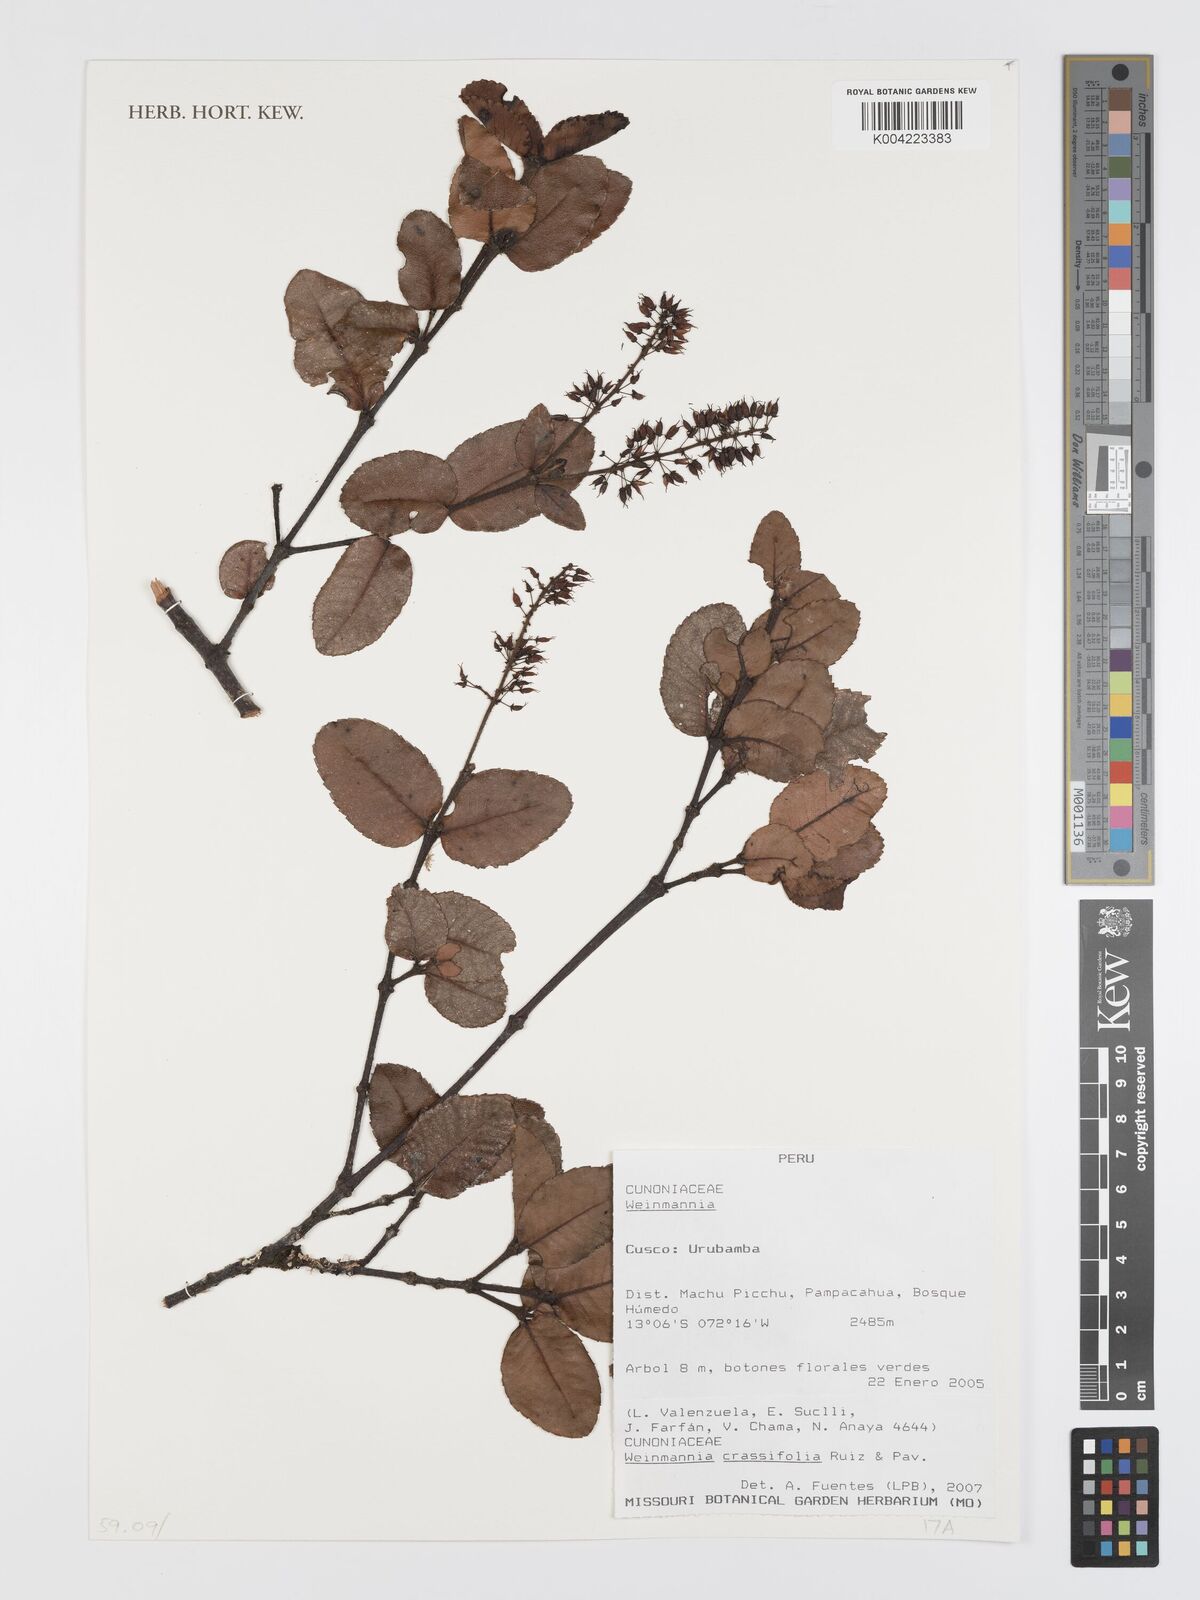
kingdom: Plantae
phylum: Tracheophyta
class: Magnoliopsida
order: Oxalidales
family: Cunoniaceae
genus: Weinmannia
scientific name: Weinmannia crassifolia
